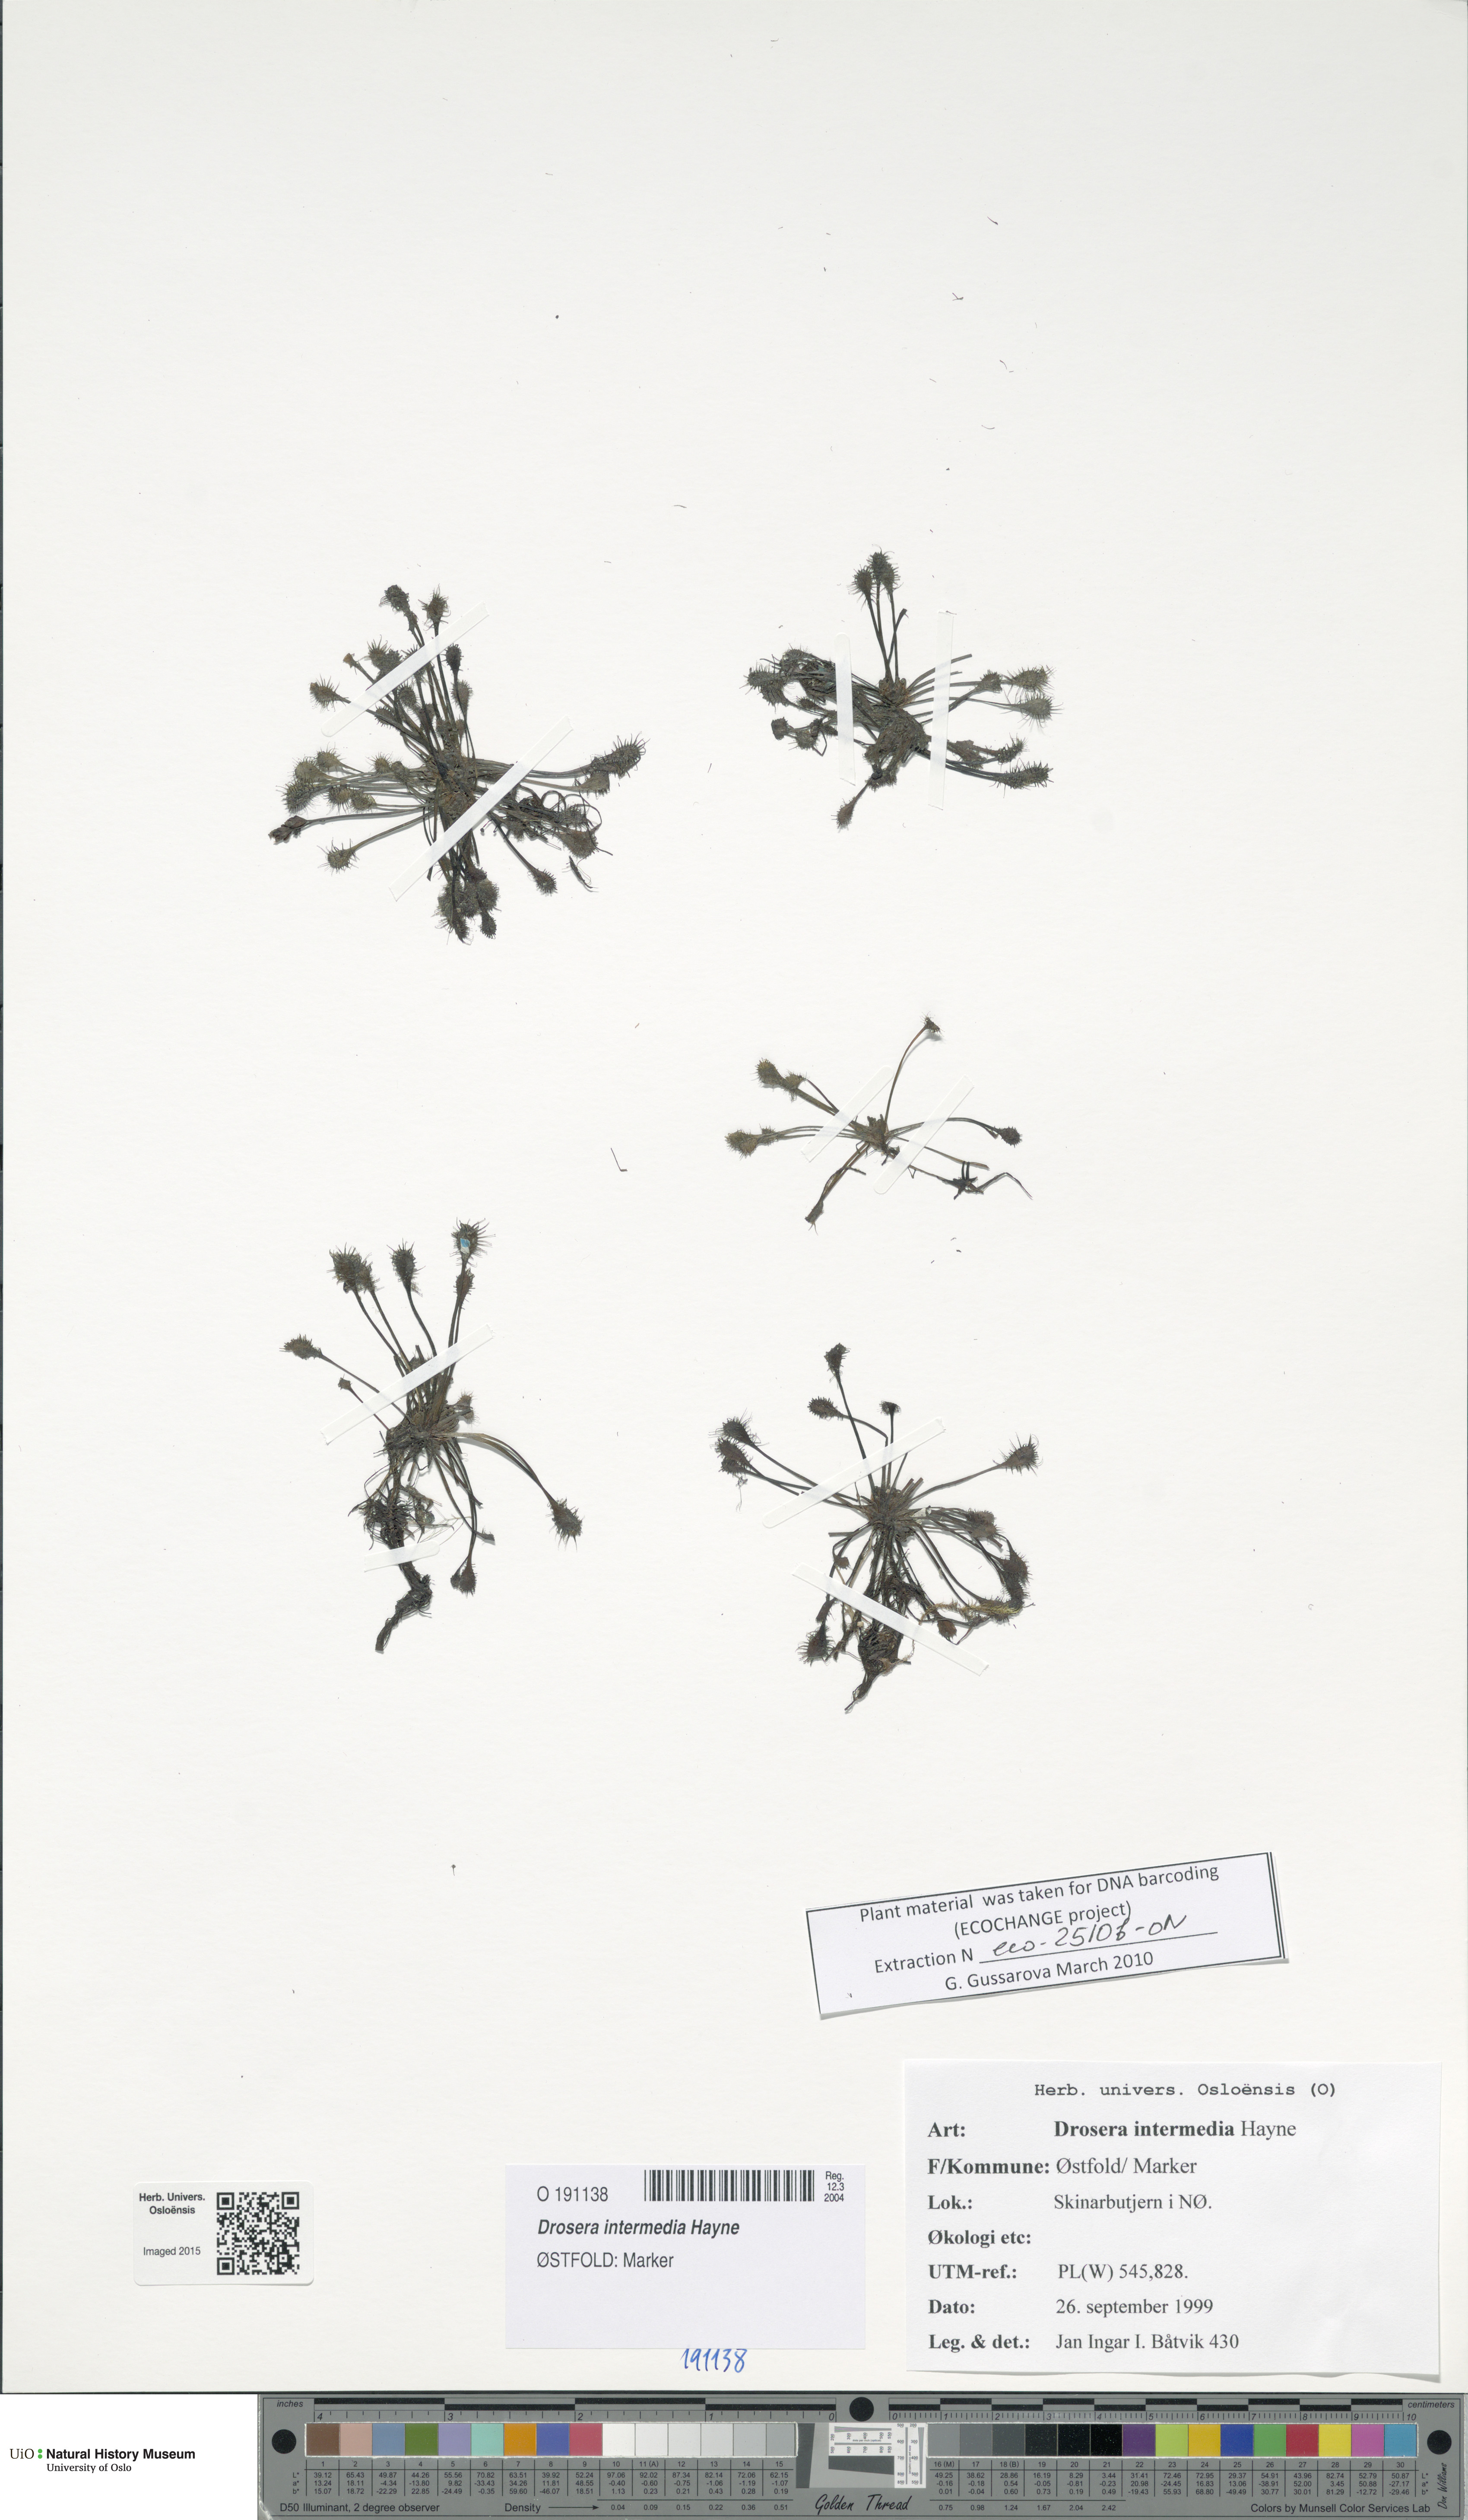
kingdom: Plantae
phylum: Tracheophyta
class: Magnoliopsida
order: Caryophyllales
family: Droseraceae
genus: Drosera
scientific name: Drosera intermedia
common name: Oblong-leaved sundew
